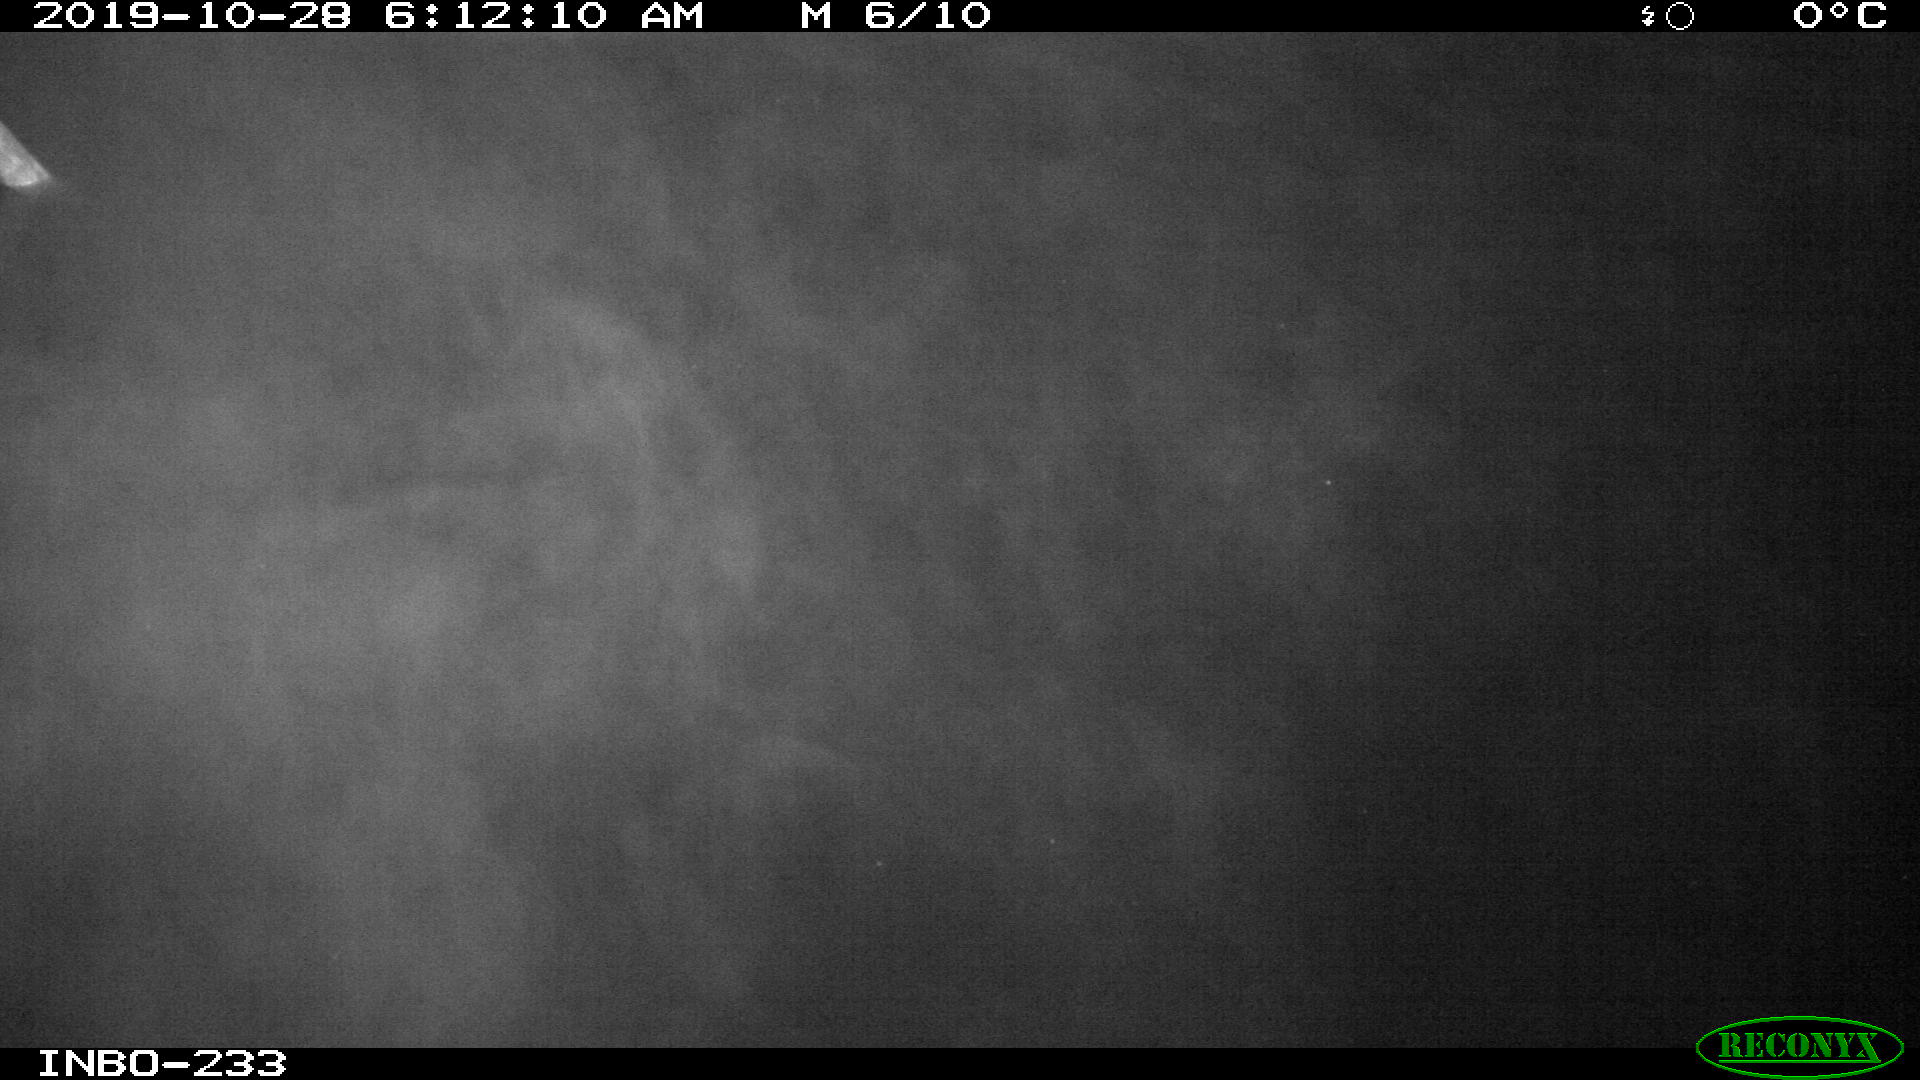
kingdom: Animalia
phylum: Chordata
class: Aves
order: Anseriformes
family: Anatidae
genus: Anas
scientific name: Anas platyrhynchos
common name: Mallard
